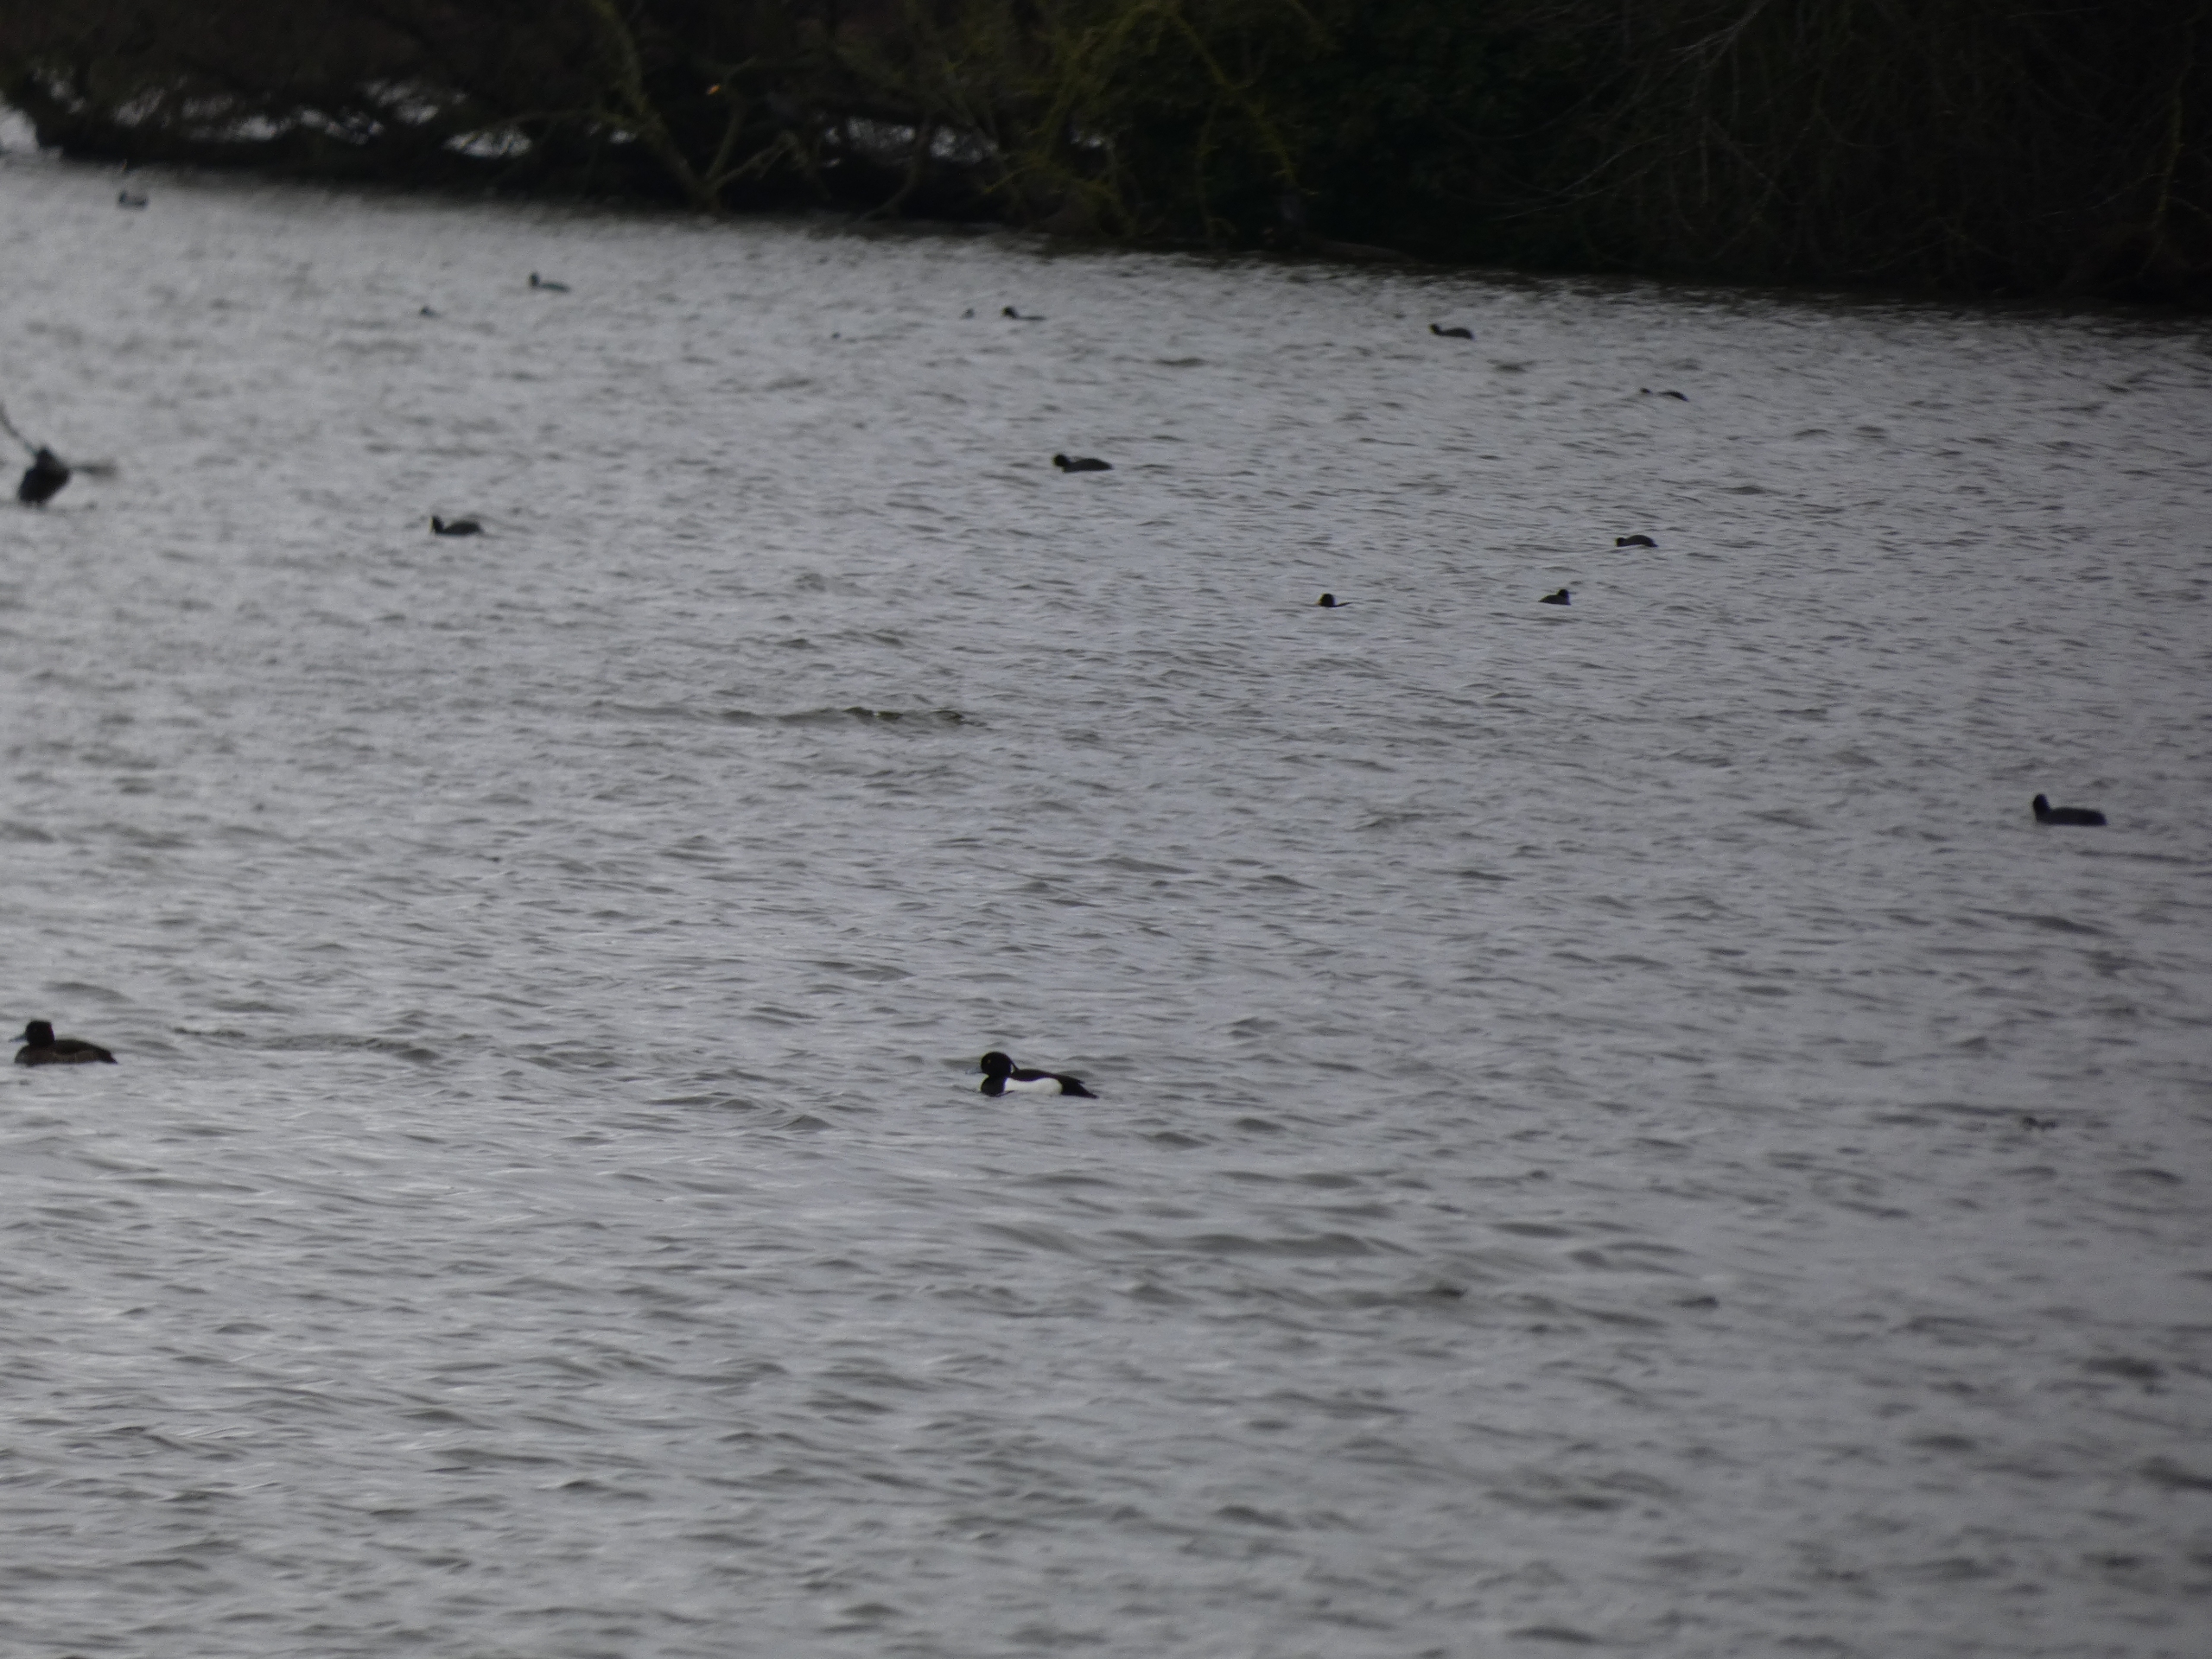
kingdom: Animalia
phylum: Chordata
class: Aves
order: Anseriformes
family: Anatidae
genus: Aythya
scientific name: Aythya fuligula
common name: Troldand
